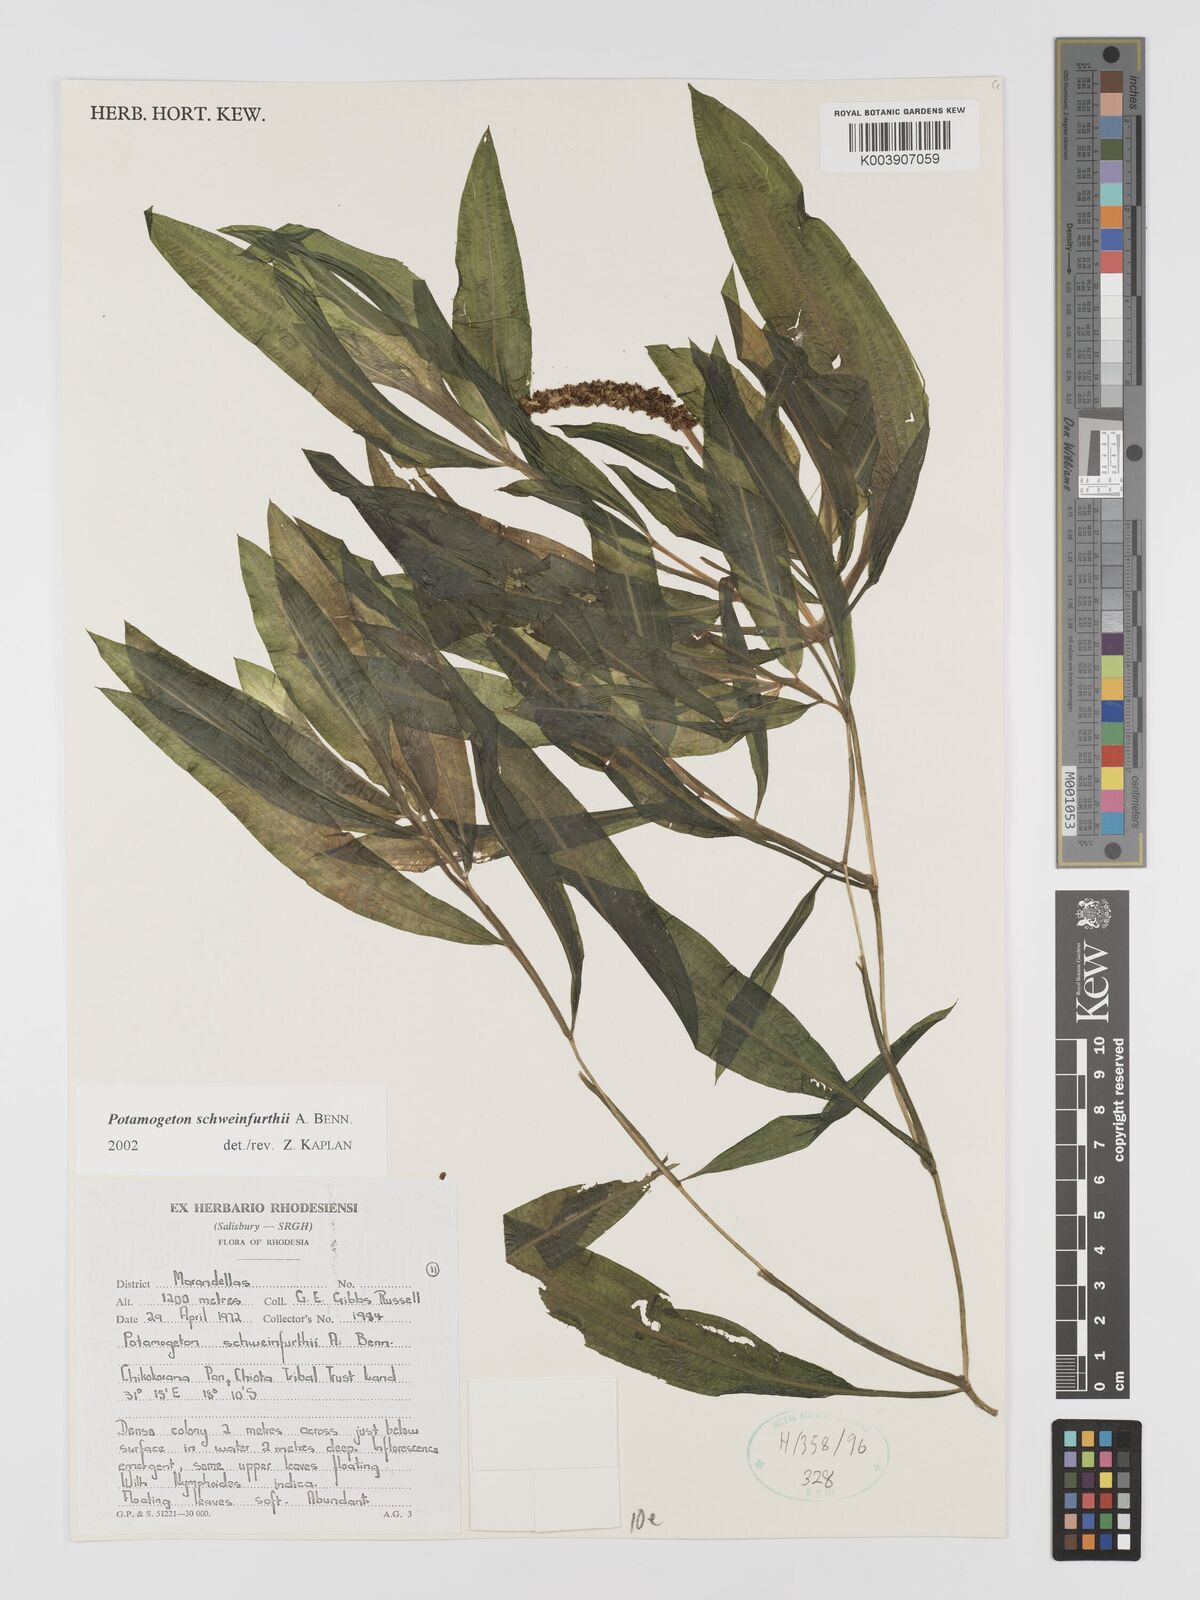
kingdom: Plantae
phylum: Tracheophyta
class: Liliopsida
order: Alismatales
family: Potamogetonaceae
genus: Potamogeton
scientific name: Potamogeton schweinfurthii
